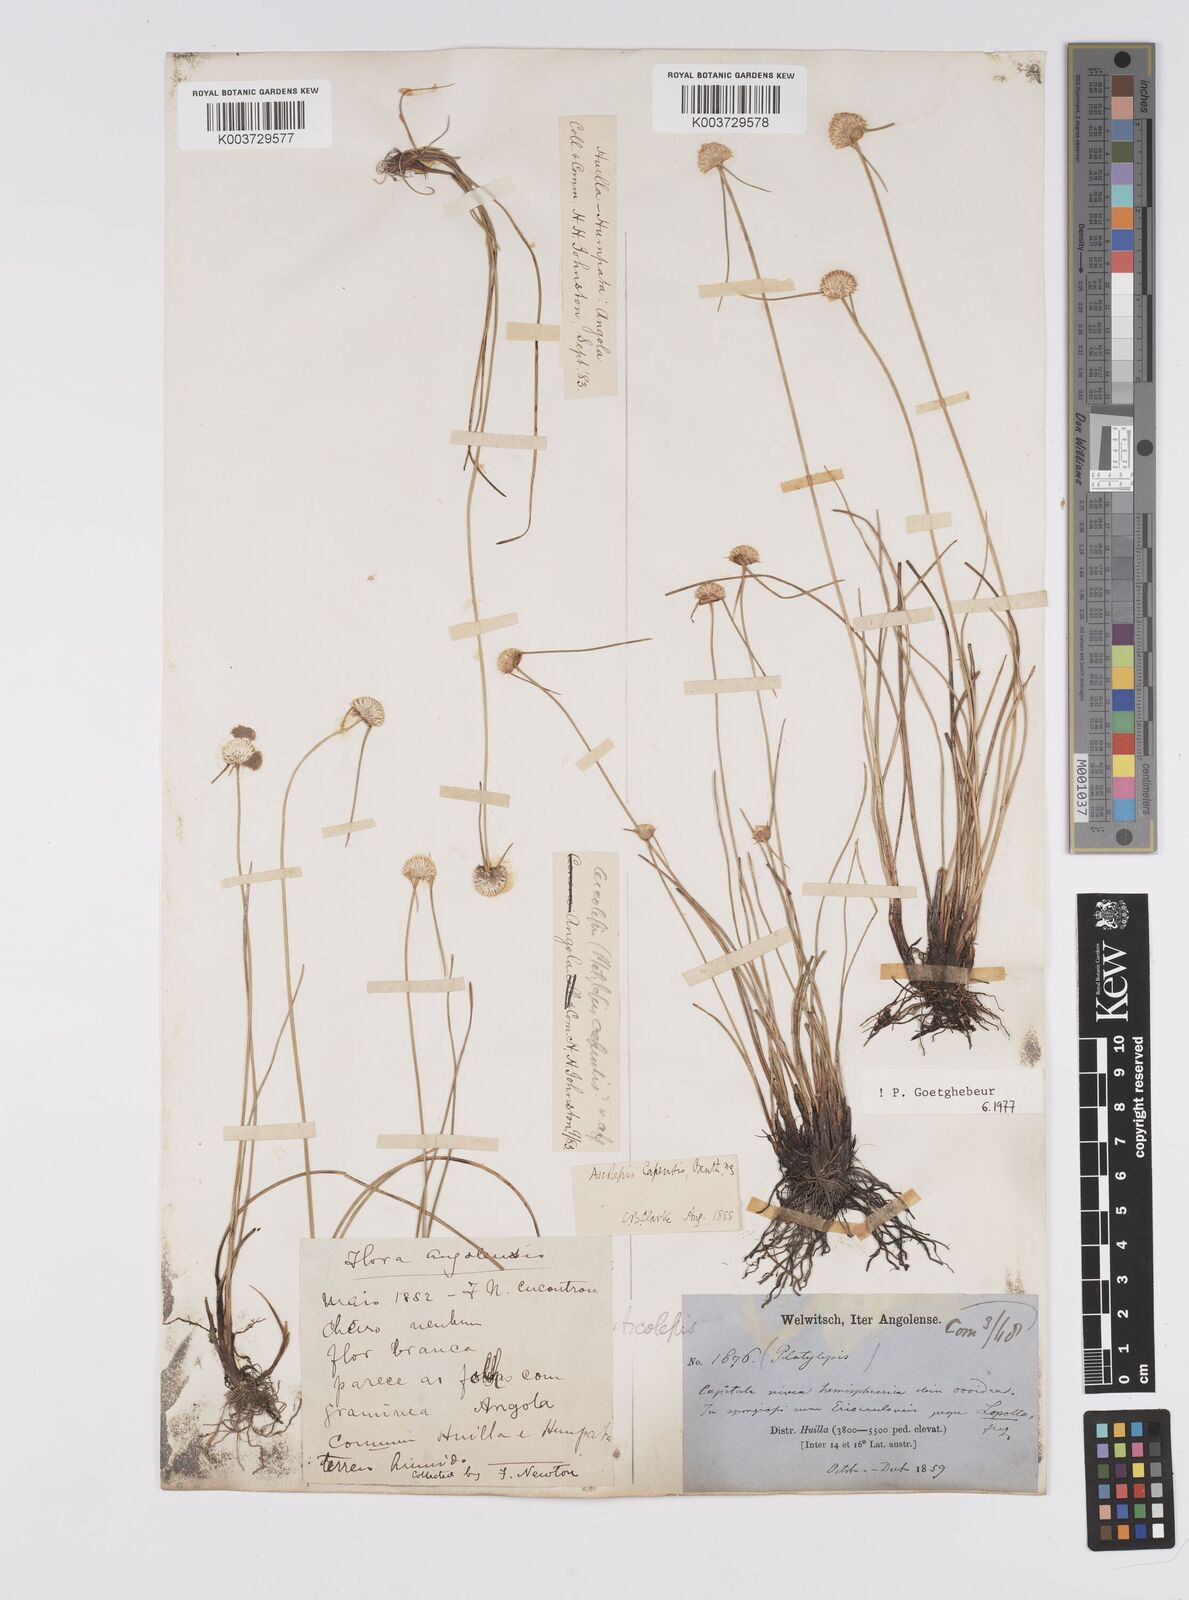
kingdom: Plantae
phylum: Tracheophyta
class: Liliopsida
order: Poales
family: Cyperaceae
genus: Cyperus
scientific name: Cyperus
